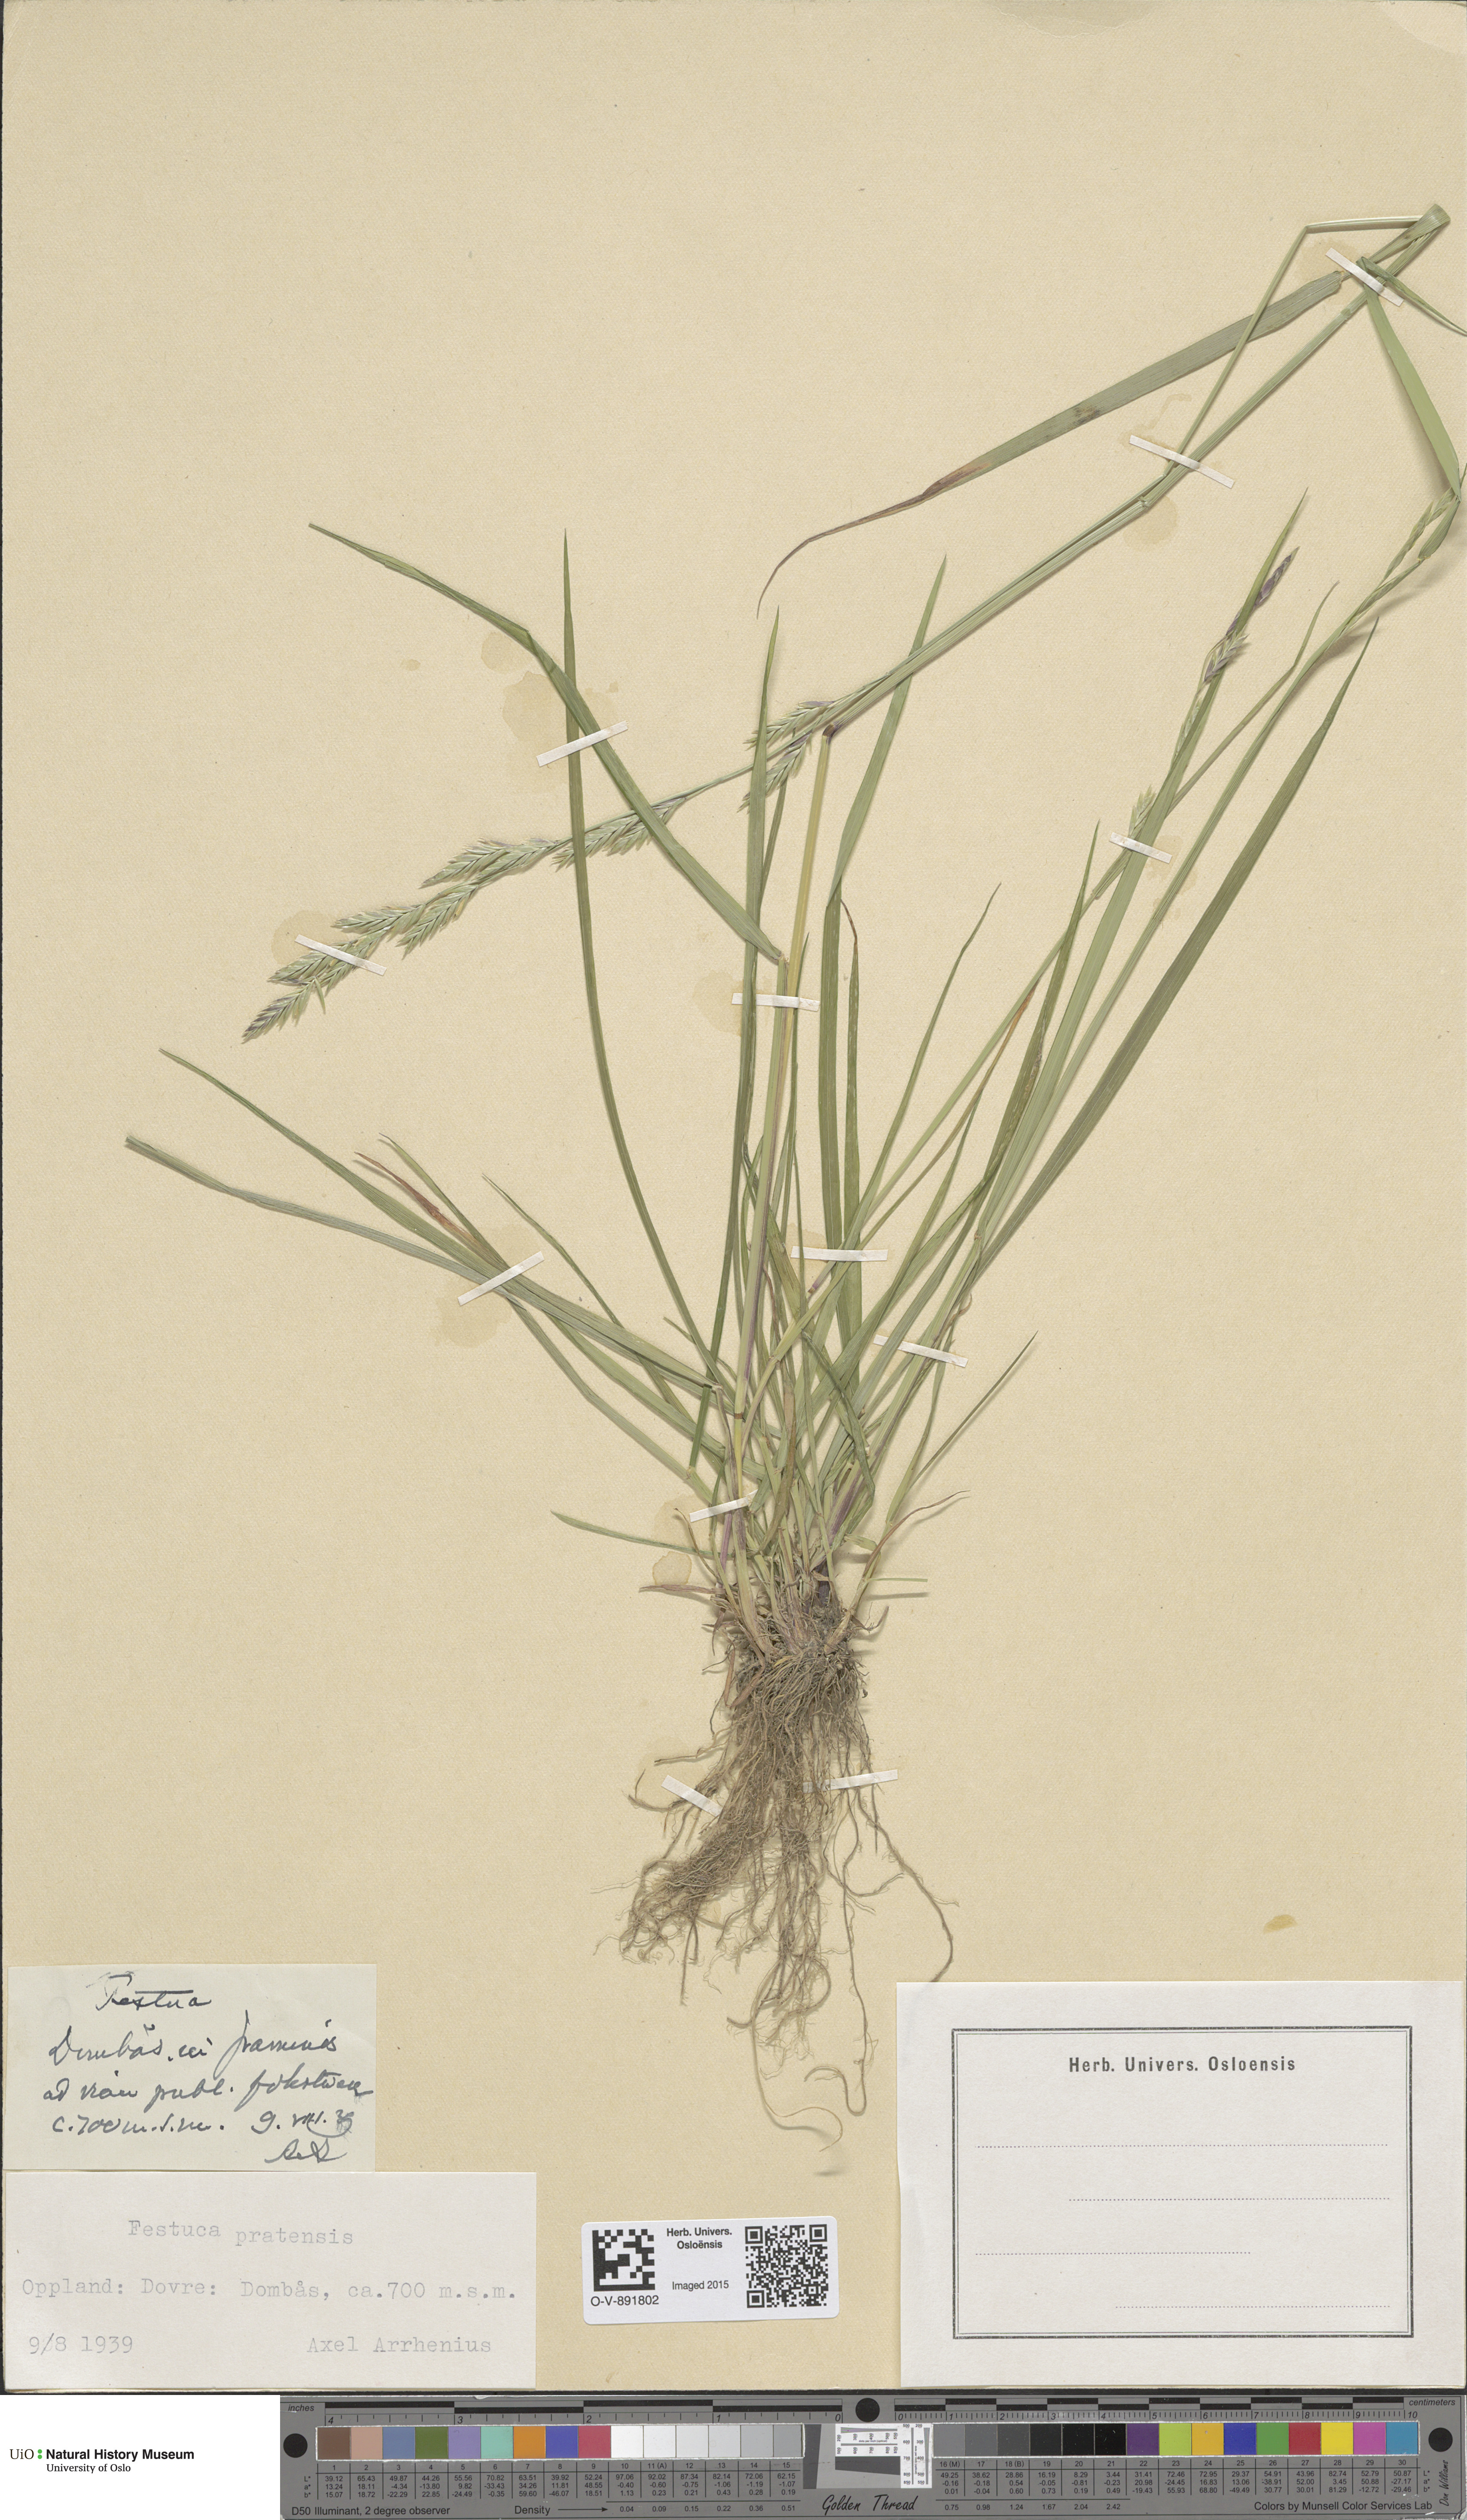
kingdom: Plantae
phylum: Tracheophyta
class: Liliopsida
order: Poales
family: Poaceae
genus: Lolium
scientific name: Lolium pratense
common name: Dover grass
